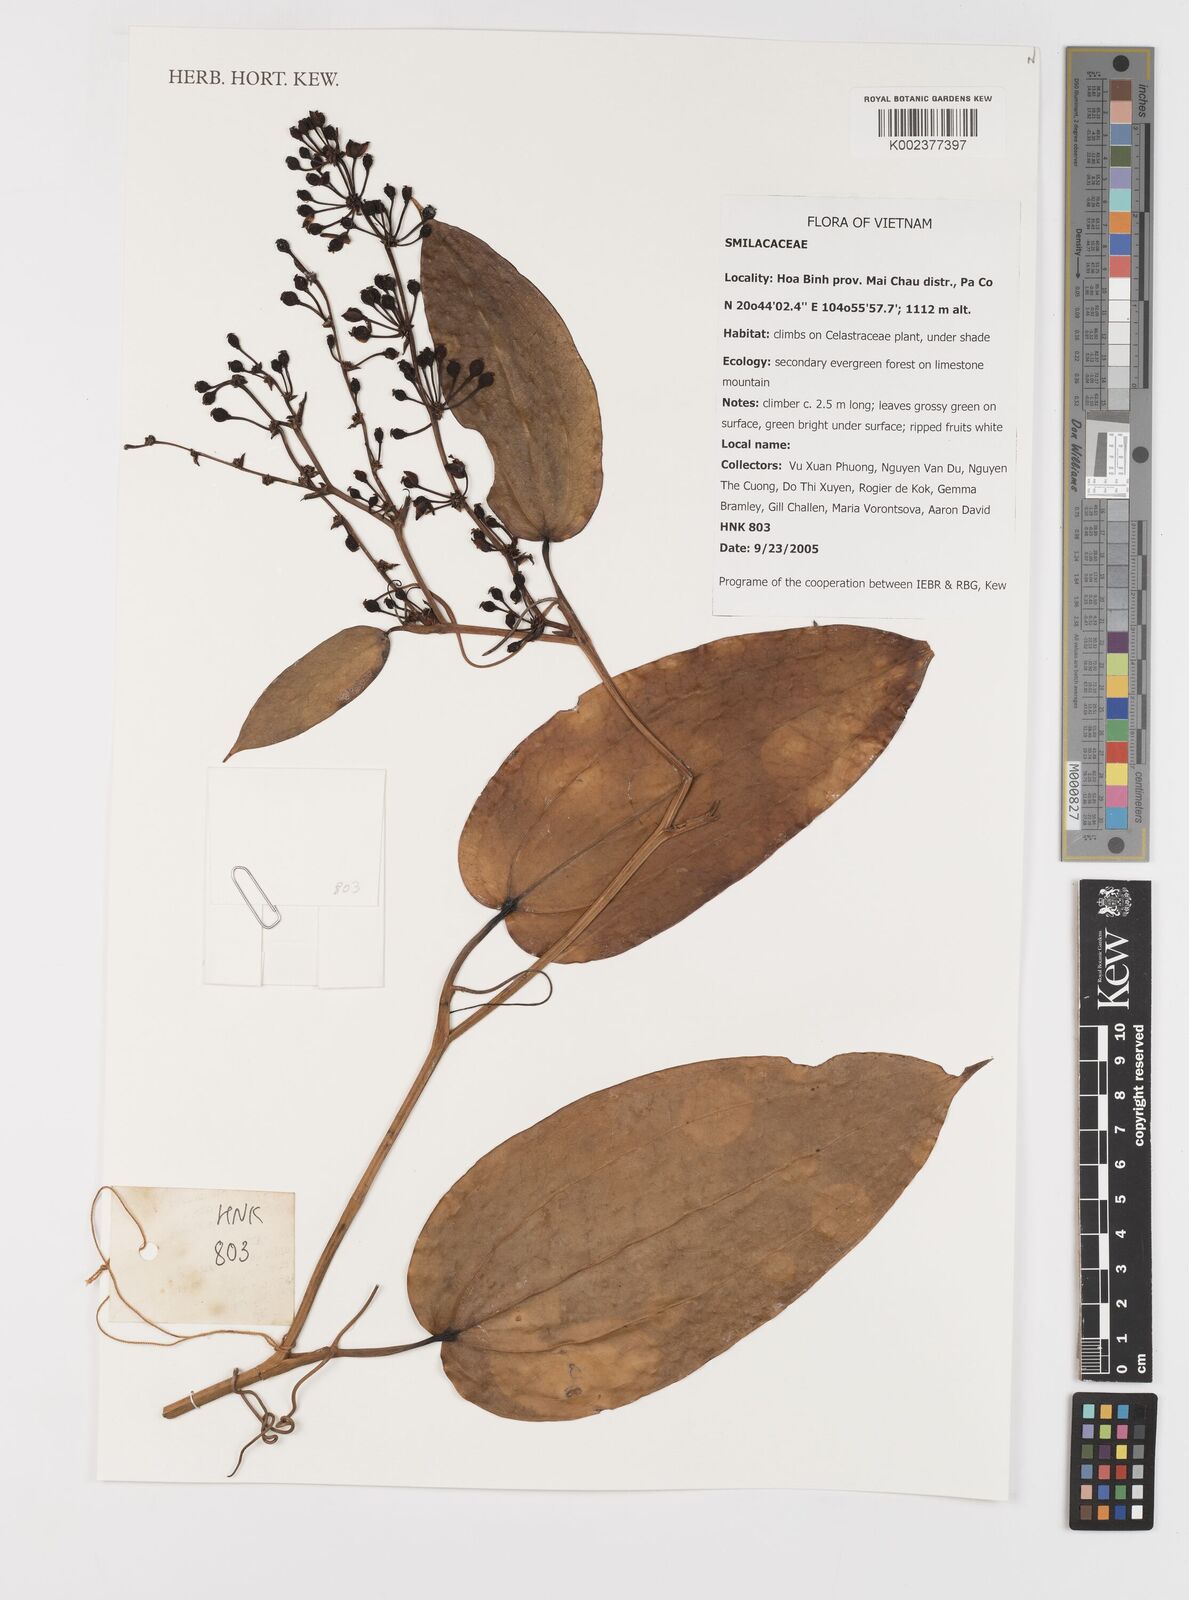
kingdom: Plantae
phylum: Tracheophyta
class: Liliopsida
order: Liliales
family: Smilacaceae
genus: Smilax
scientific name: Smilax
